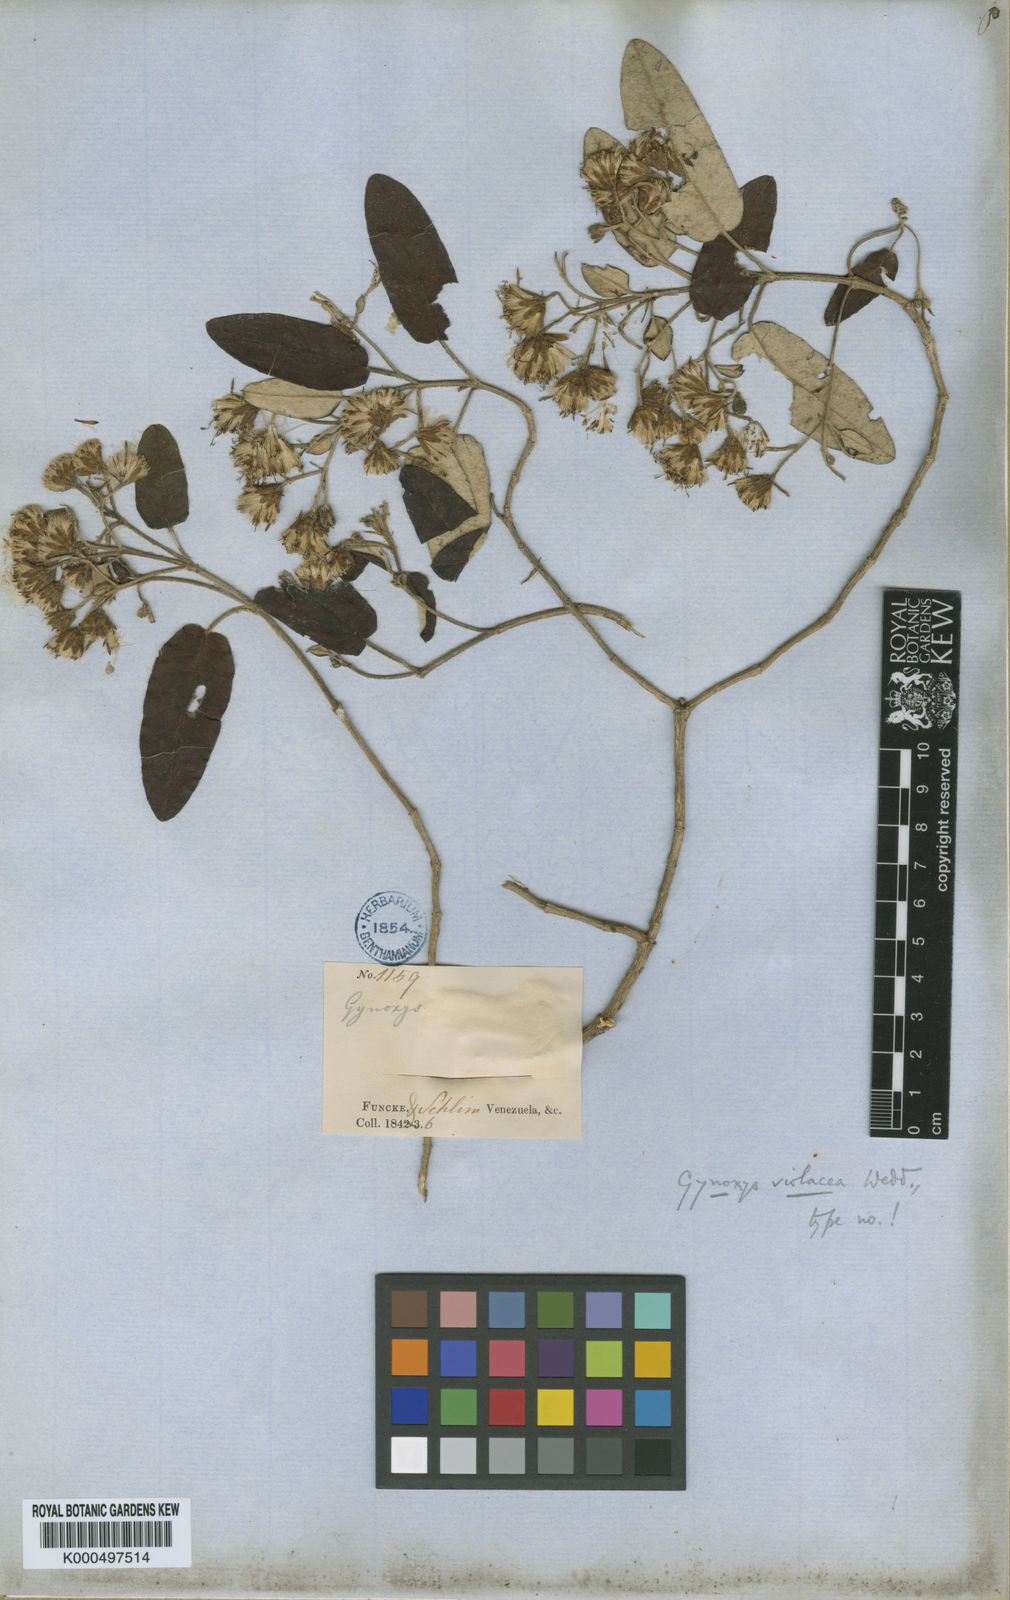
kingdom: Plantae
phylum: Tracheophyta
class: Magnoliopsida
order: Asterales
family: Asteraceae
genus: Gynoxys
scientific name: Gynoxys violacea
